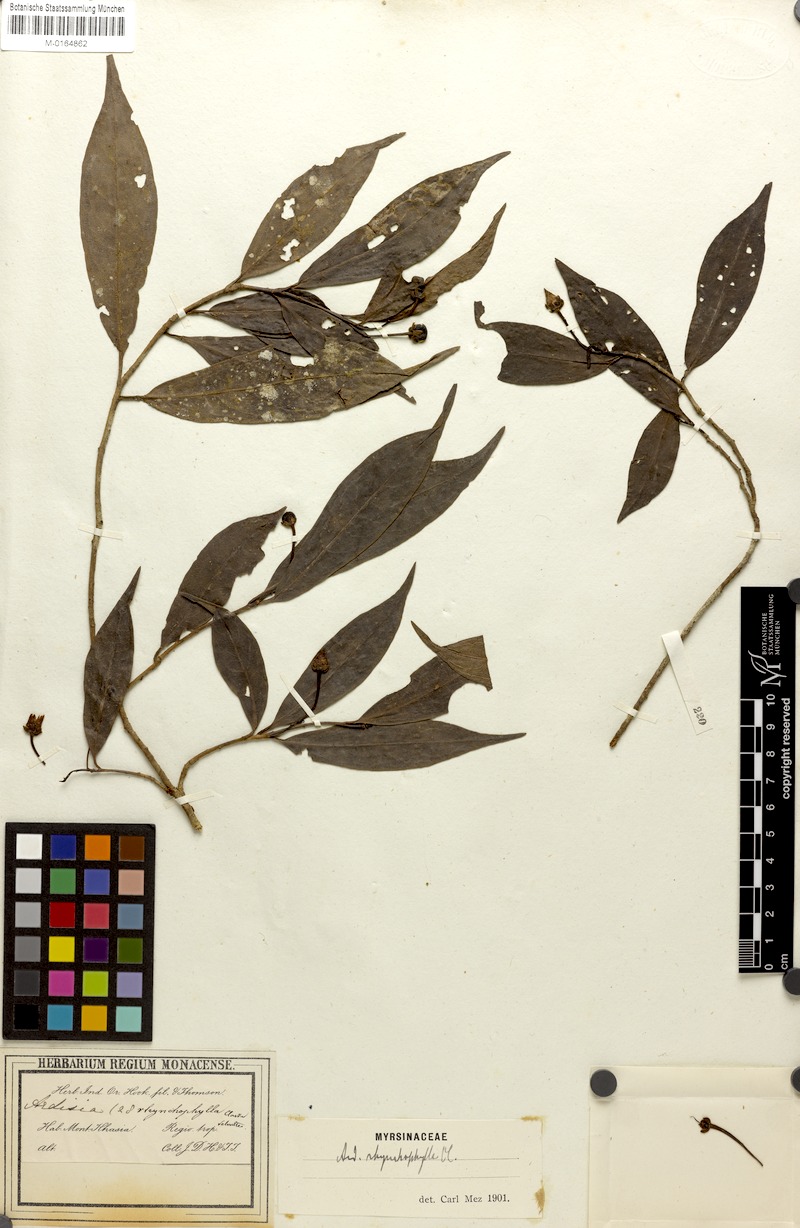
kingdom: Plantae
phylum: Tracheophyta
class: Magnoliopsida
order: Ericales
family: Primulaceae
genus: Ardisia
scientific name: Ardisia rhynchophylla
